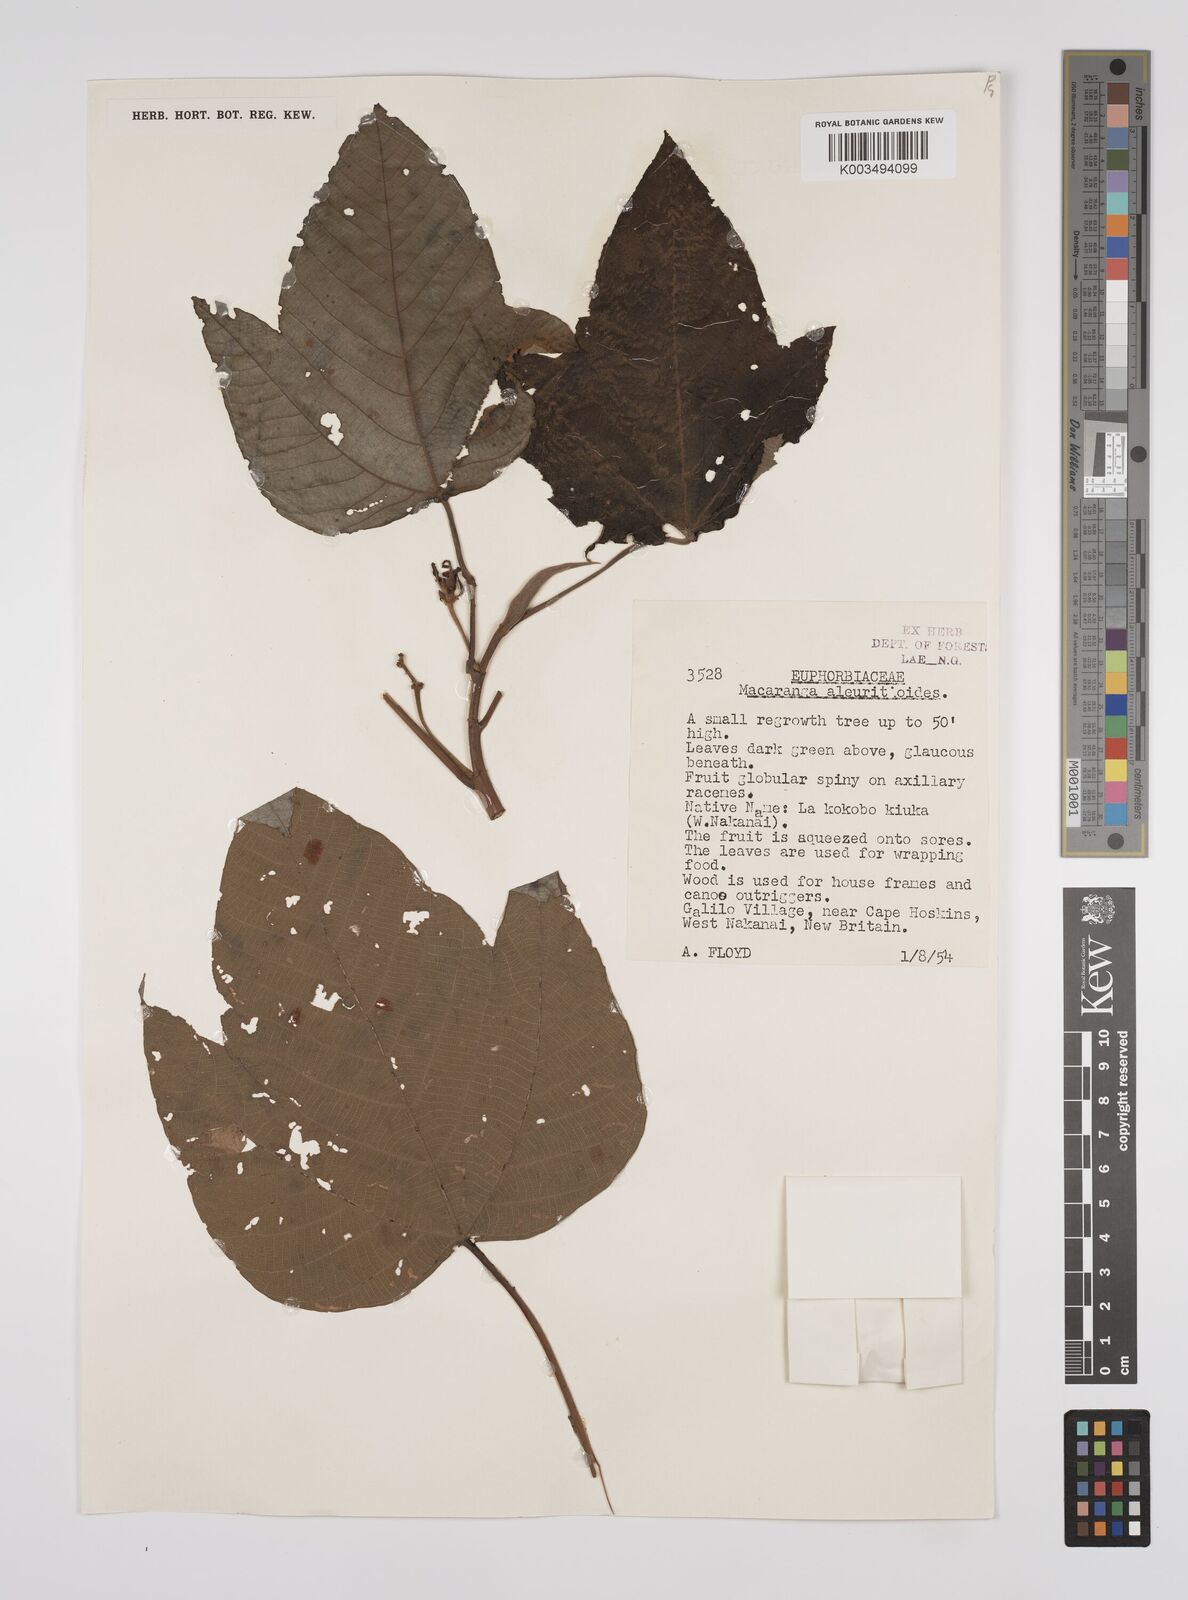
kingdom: Plantae
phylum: Tracheophyta
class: Magnoliopsida
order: Malpighiales
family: Euphorbiaceae
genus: Macaranga
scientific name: Macaranga aleuritoides
